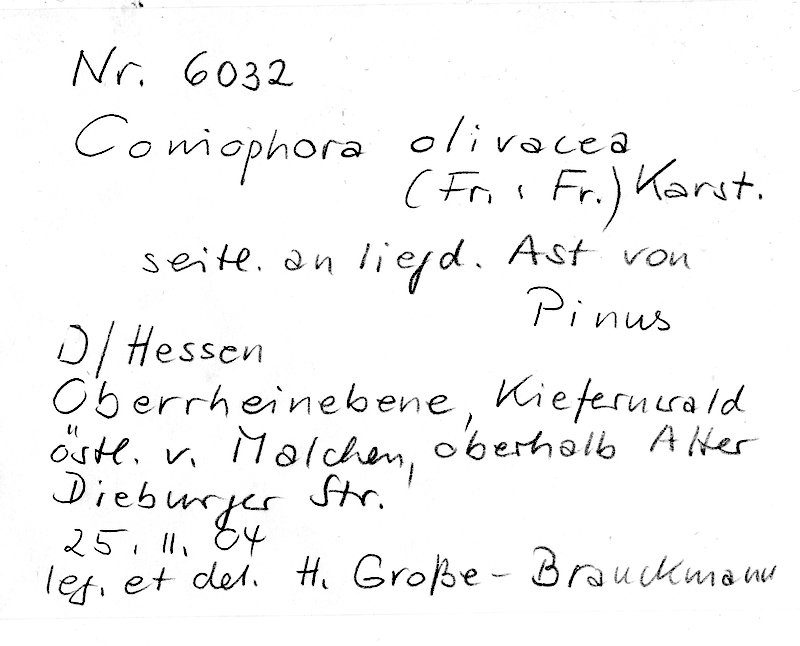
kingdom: Fungi
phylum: Basidiomycota
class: Agaricomycetes
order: Boletales
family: Coniophoraceae
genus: Coniophora
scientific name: Coniophora olivacea
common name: Olive duster
